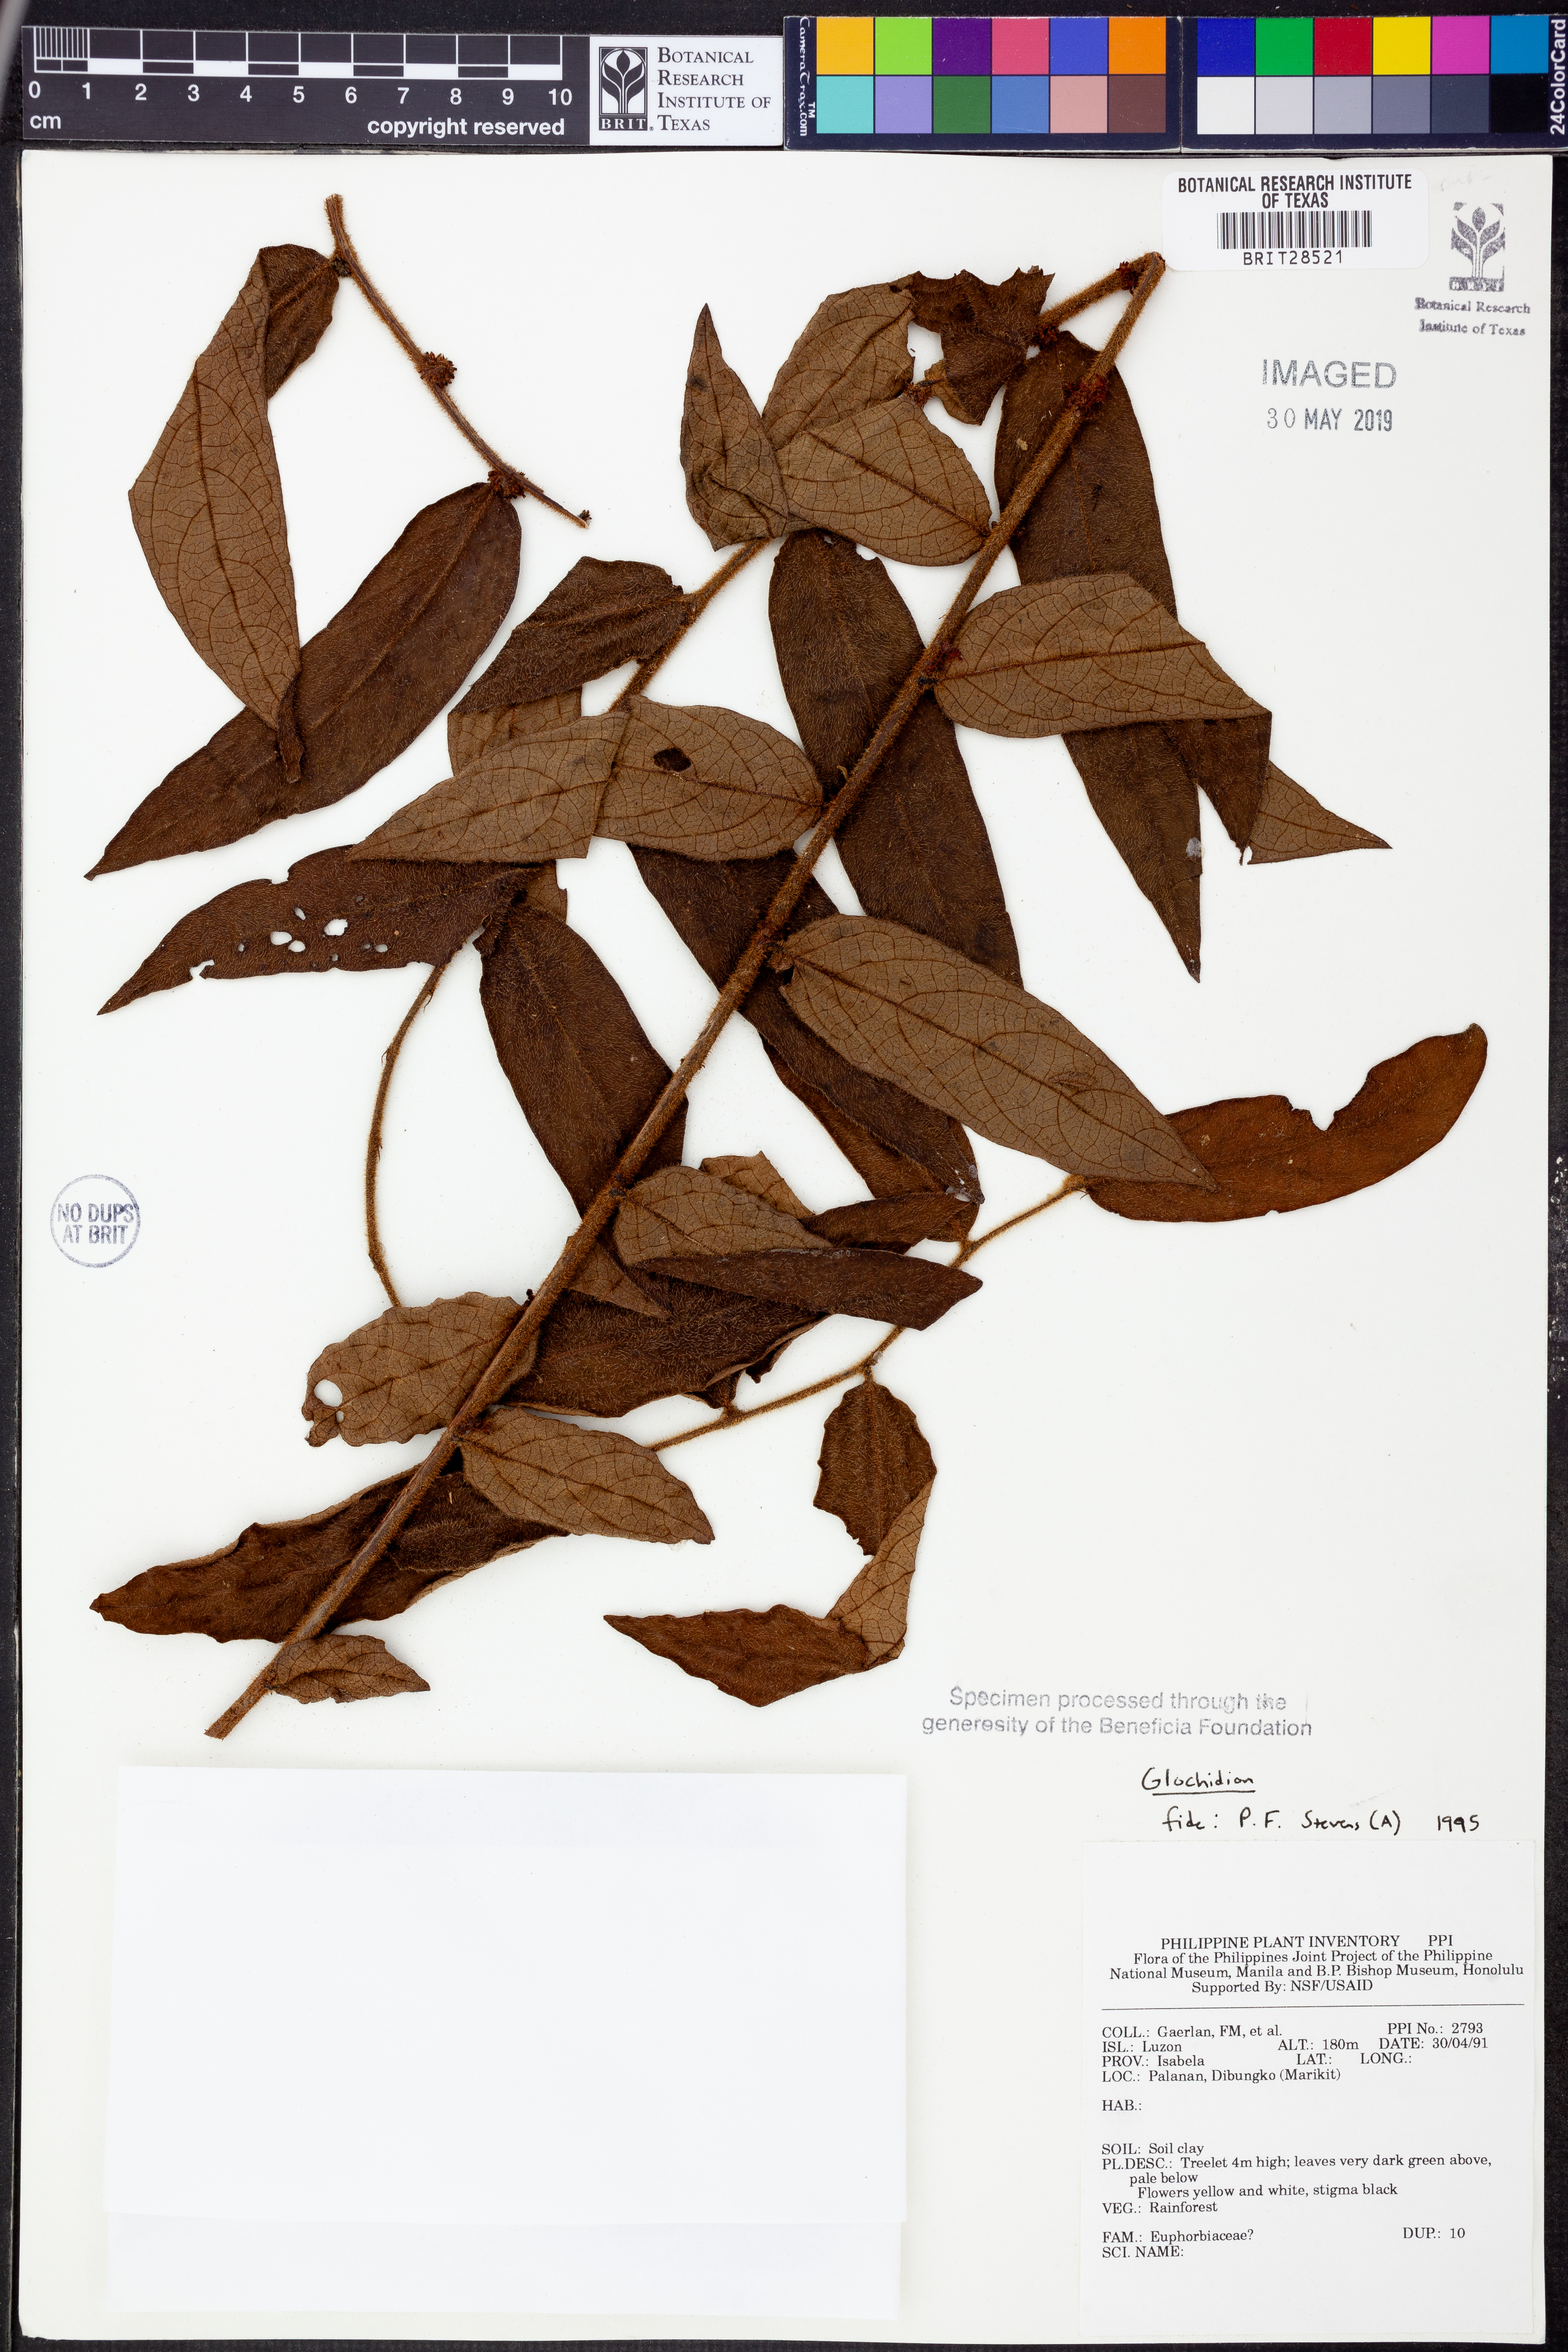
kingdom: Plantae
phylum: Tracheophyta
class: Magnoliopsida
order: Malpighiales
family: Phyllanthaceae
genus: Glochidion
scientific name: Glochidion
